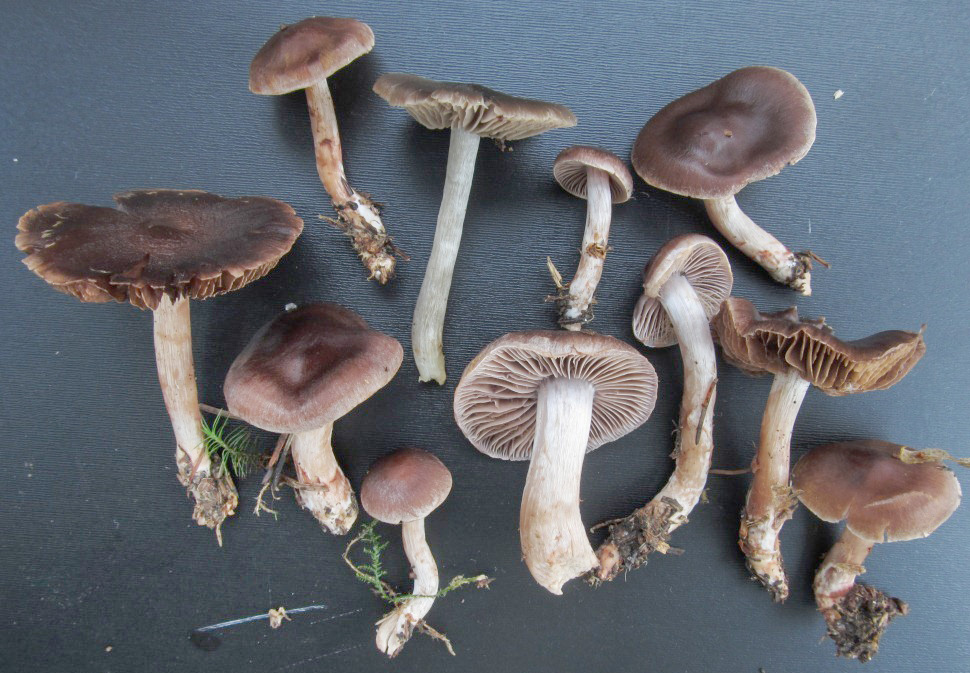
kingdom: Fungi
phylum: Basidiomycota
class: Agaricomycetes
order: Agaricales
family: Cortinariaceae
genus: Cortinarius
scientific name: Cortinarius inconspicuus
